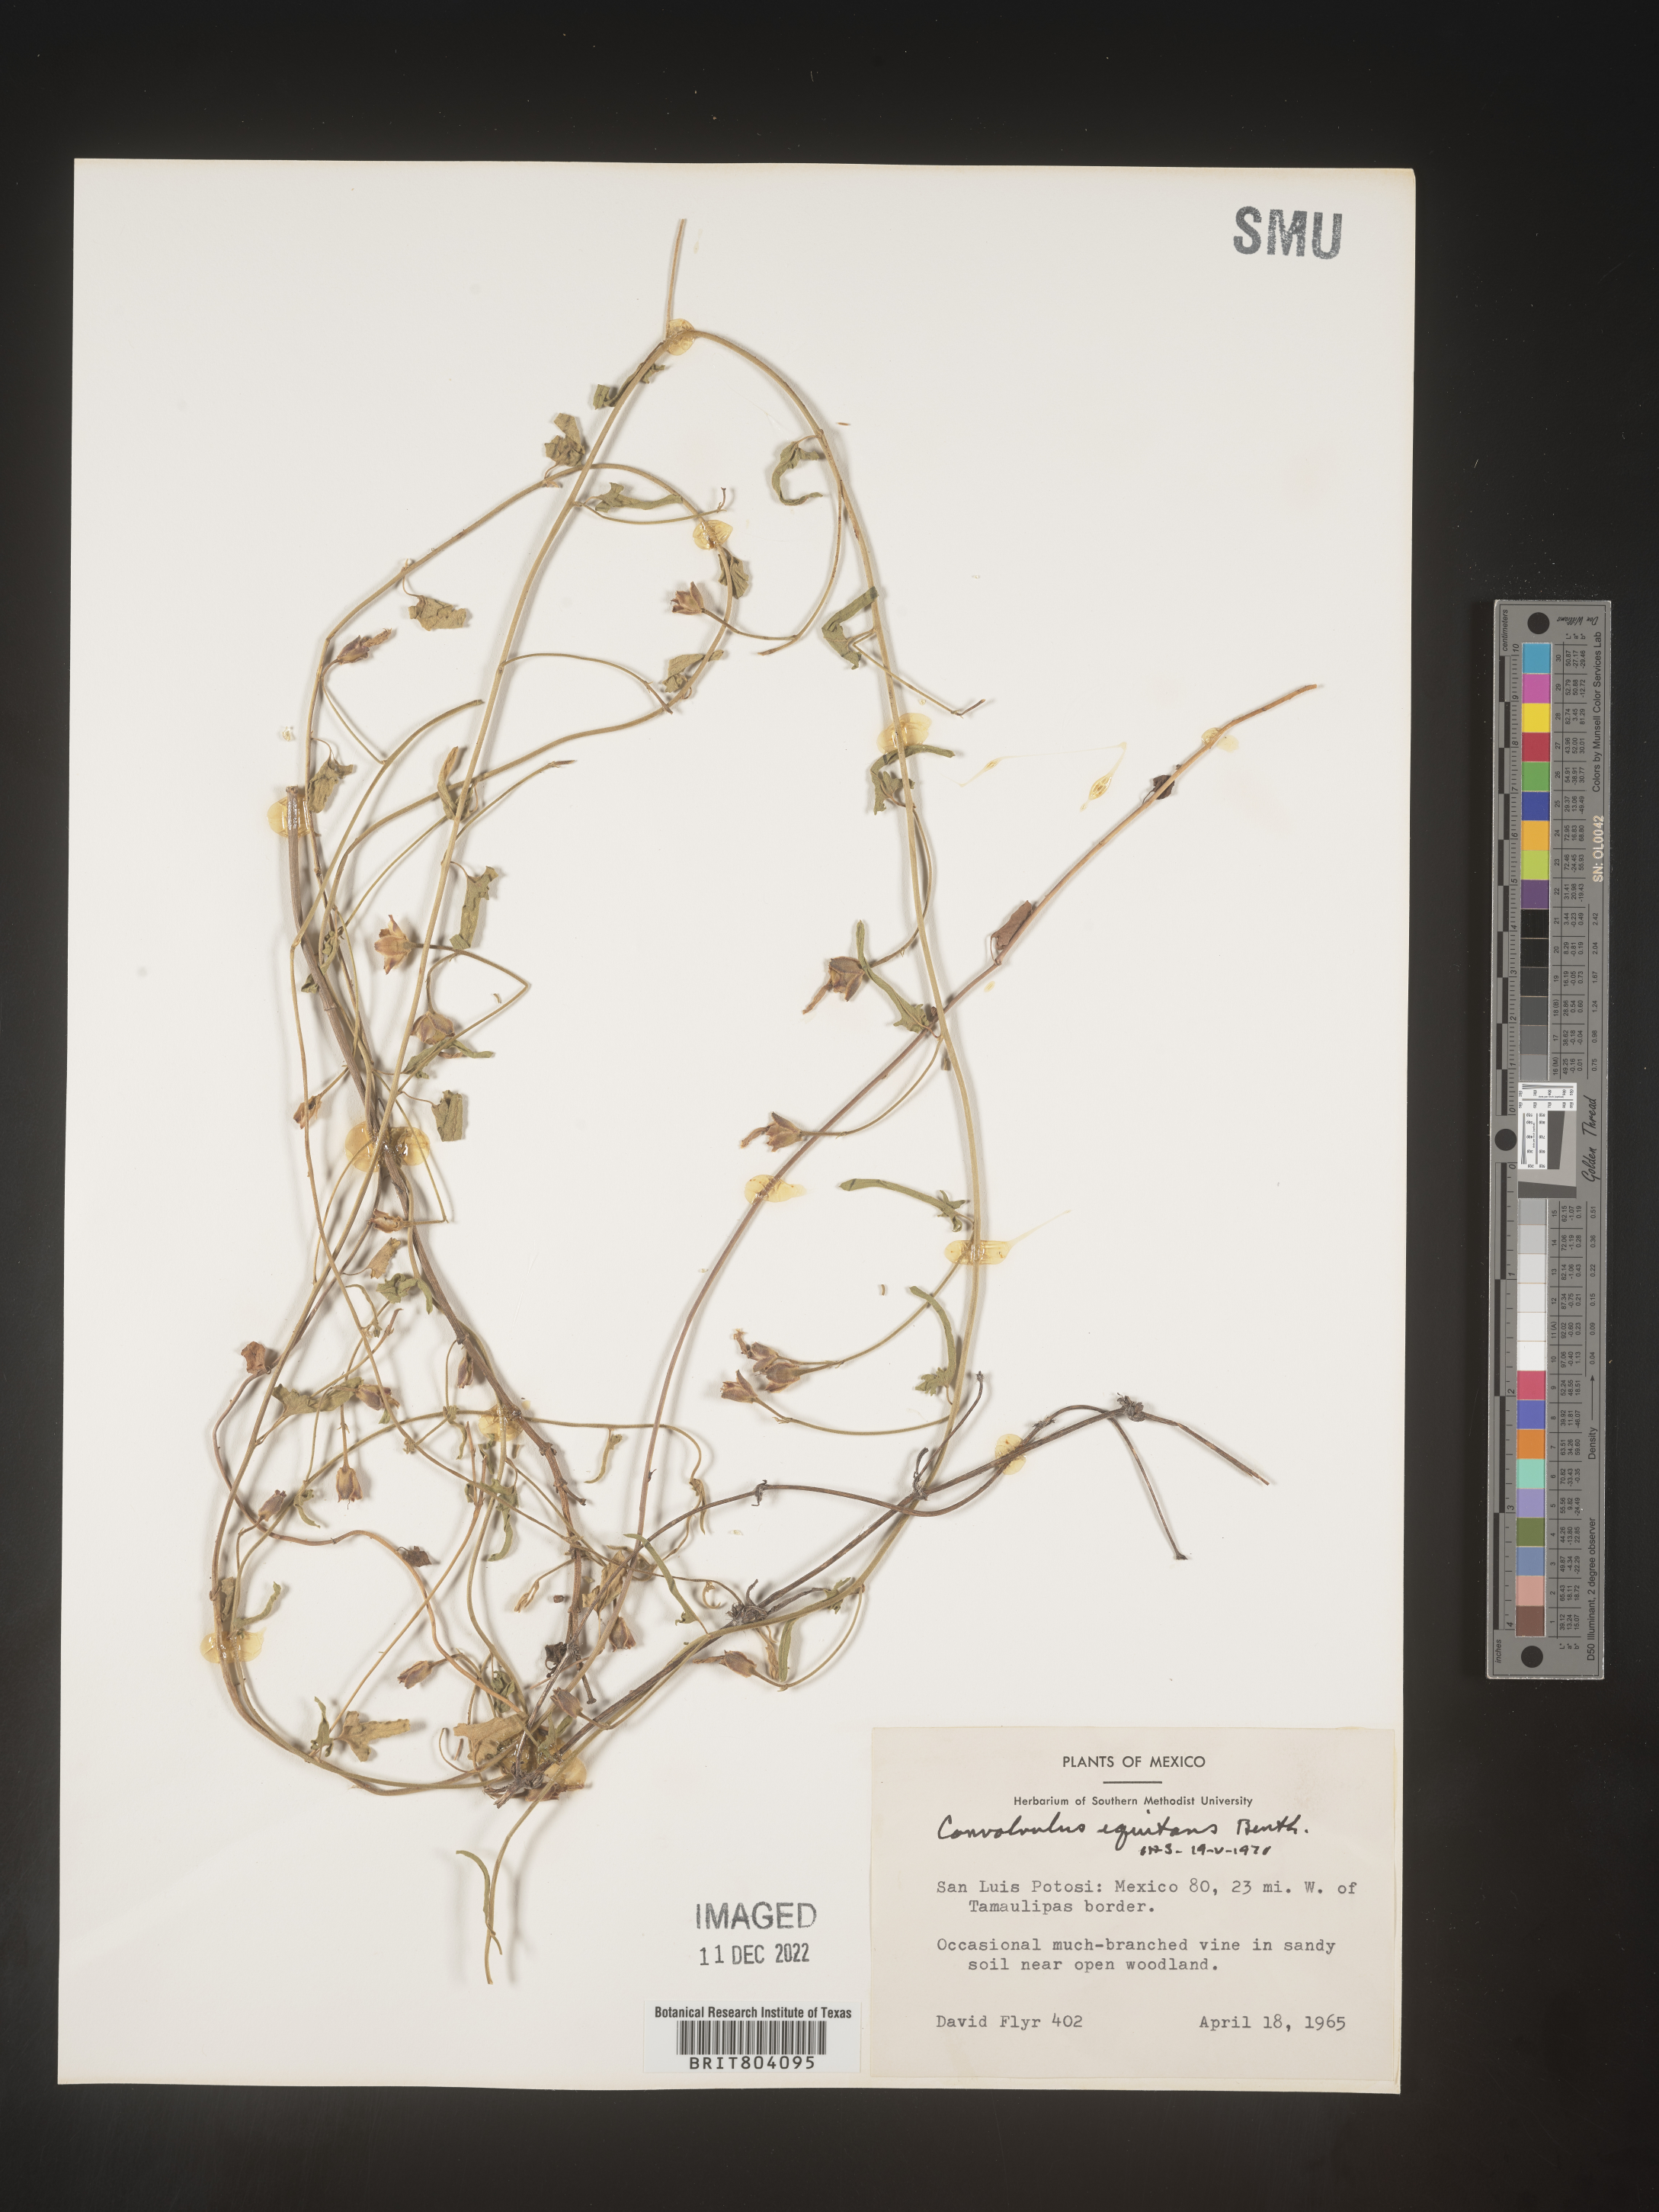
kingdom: Plantae
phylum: Tracheophyta
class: Magnoliopsida
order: Solanales
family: Convolvulaceae
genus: Convolvulus
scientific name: Convolvulus
